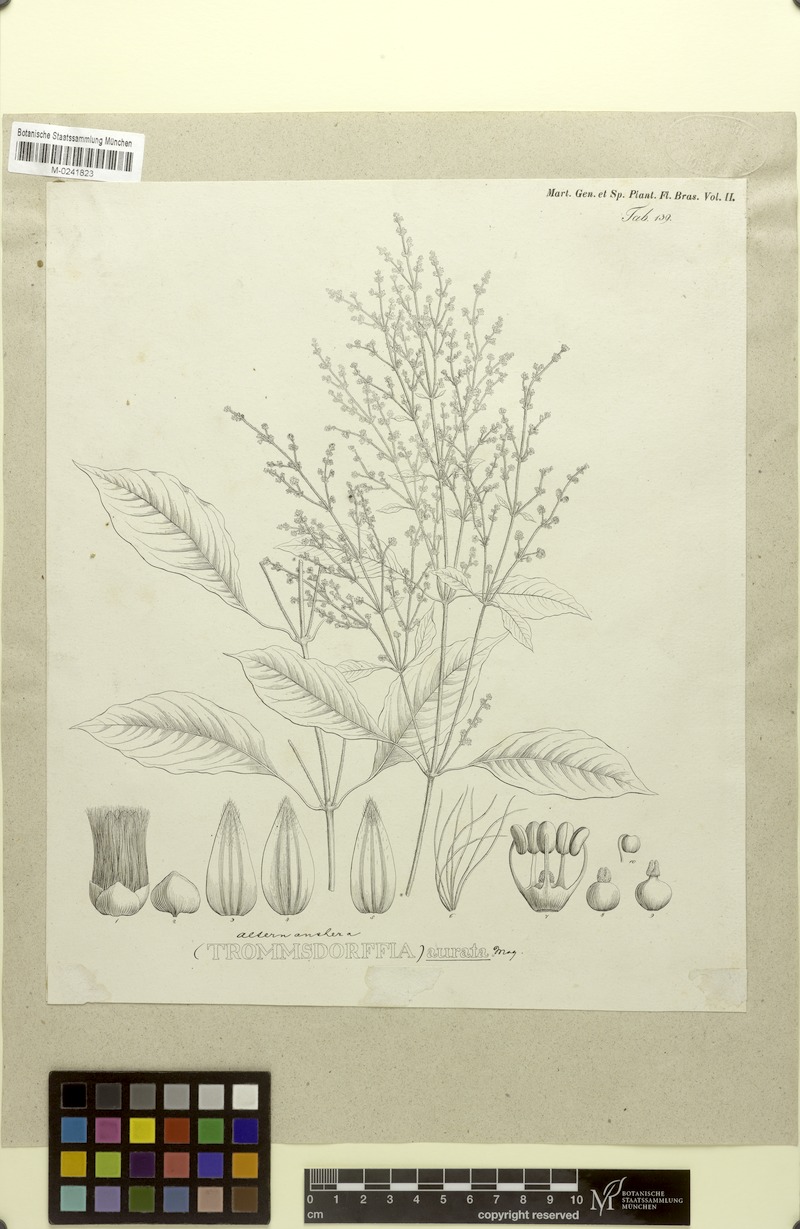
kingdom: Plantae
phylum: Tracheophyta
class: Magnoliopsida
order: Caryophyllales
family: Amaranthaceae
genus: Pedersenia
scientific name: Pedersenia argentata
